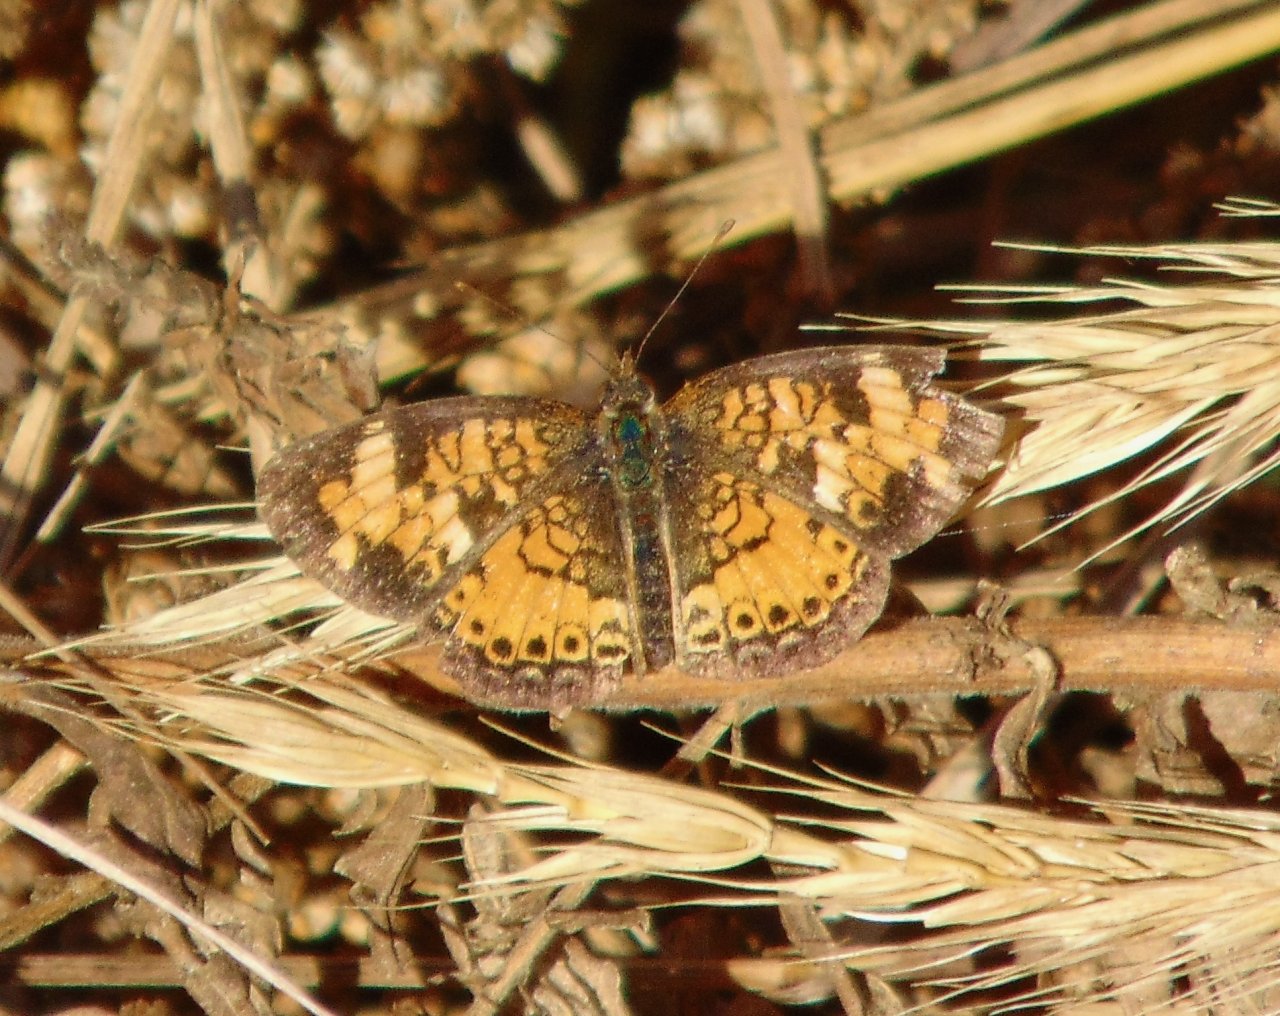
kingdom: Animalia
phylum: Arthropoda
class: Insecta
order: Lepidoptera
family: Nymphalidae
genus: Phyciodes
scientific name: Phyciodes tharos
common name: Pearl Crescent
